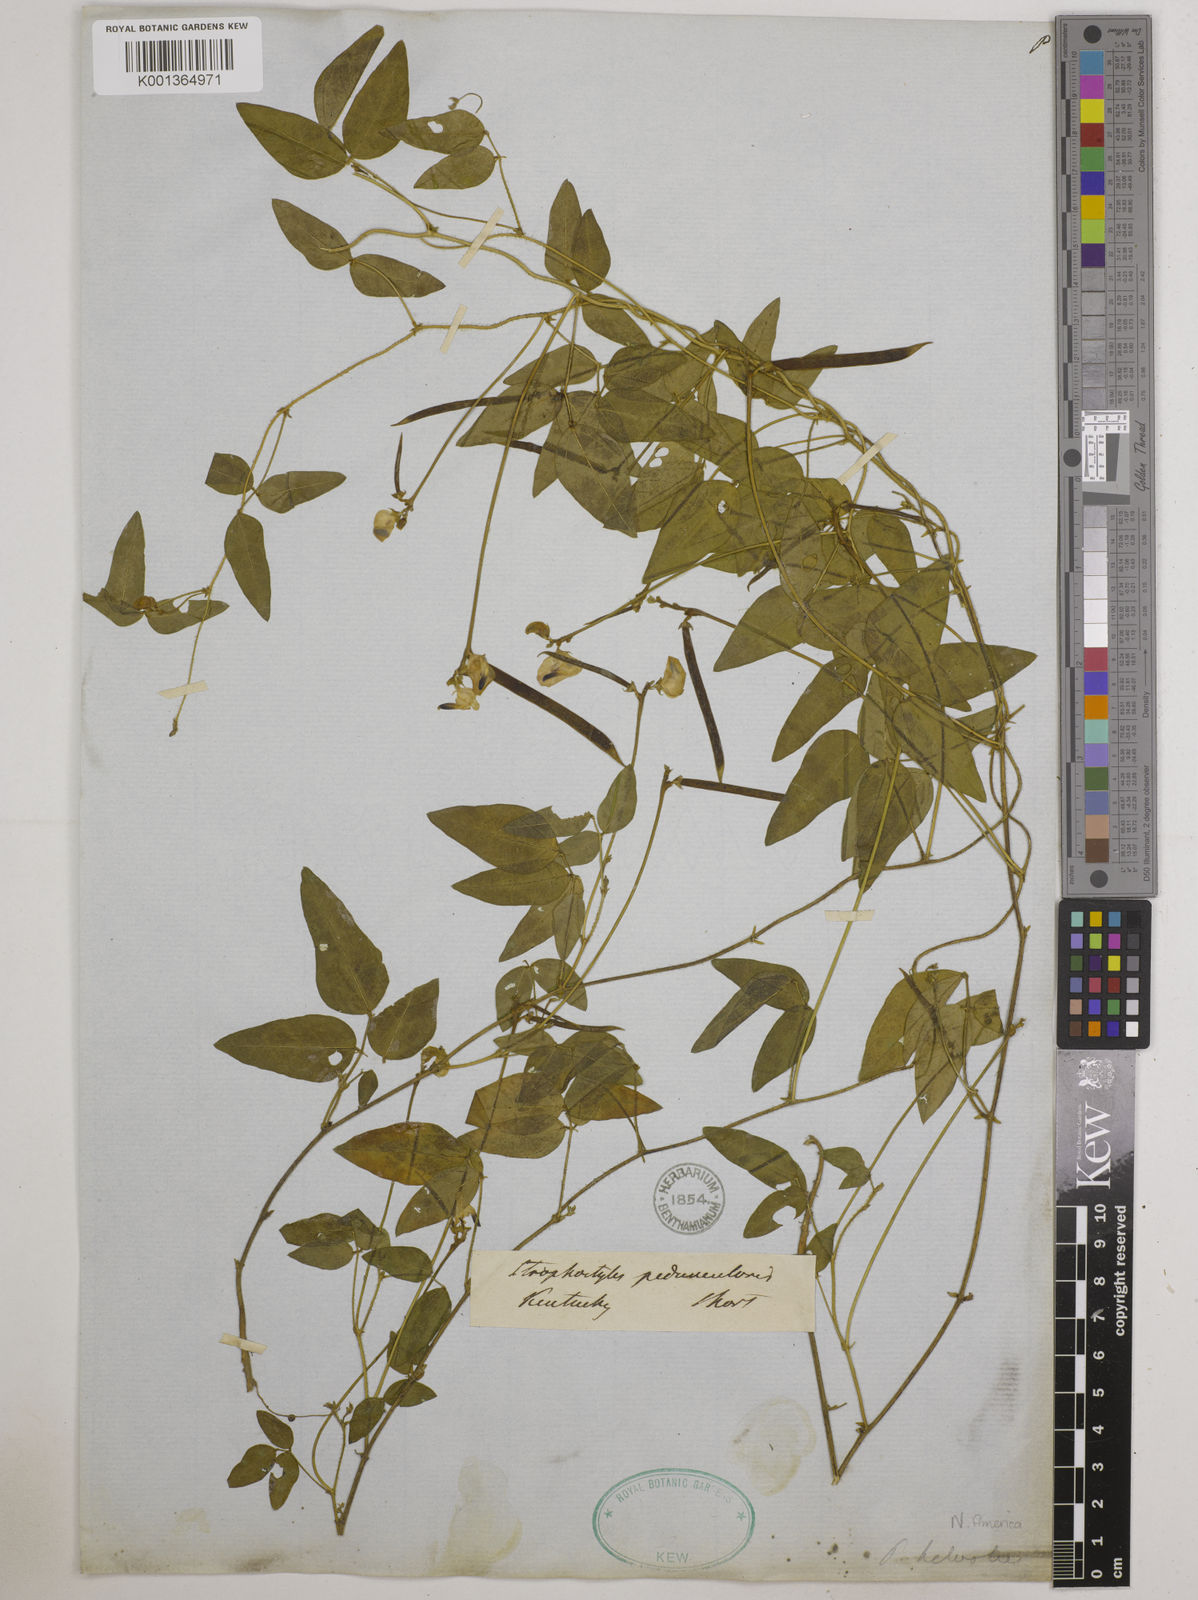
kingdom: Plantae
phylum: Tracheophyta
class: Magnoliopsida
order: Fabales
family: Fabaceae
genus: Strophostyles
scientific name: Strophostyles umbellata
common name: Perennial wild bean
